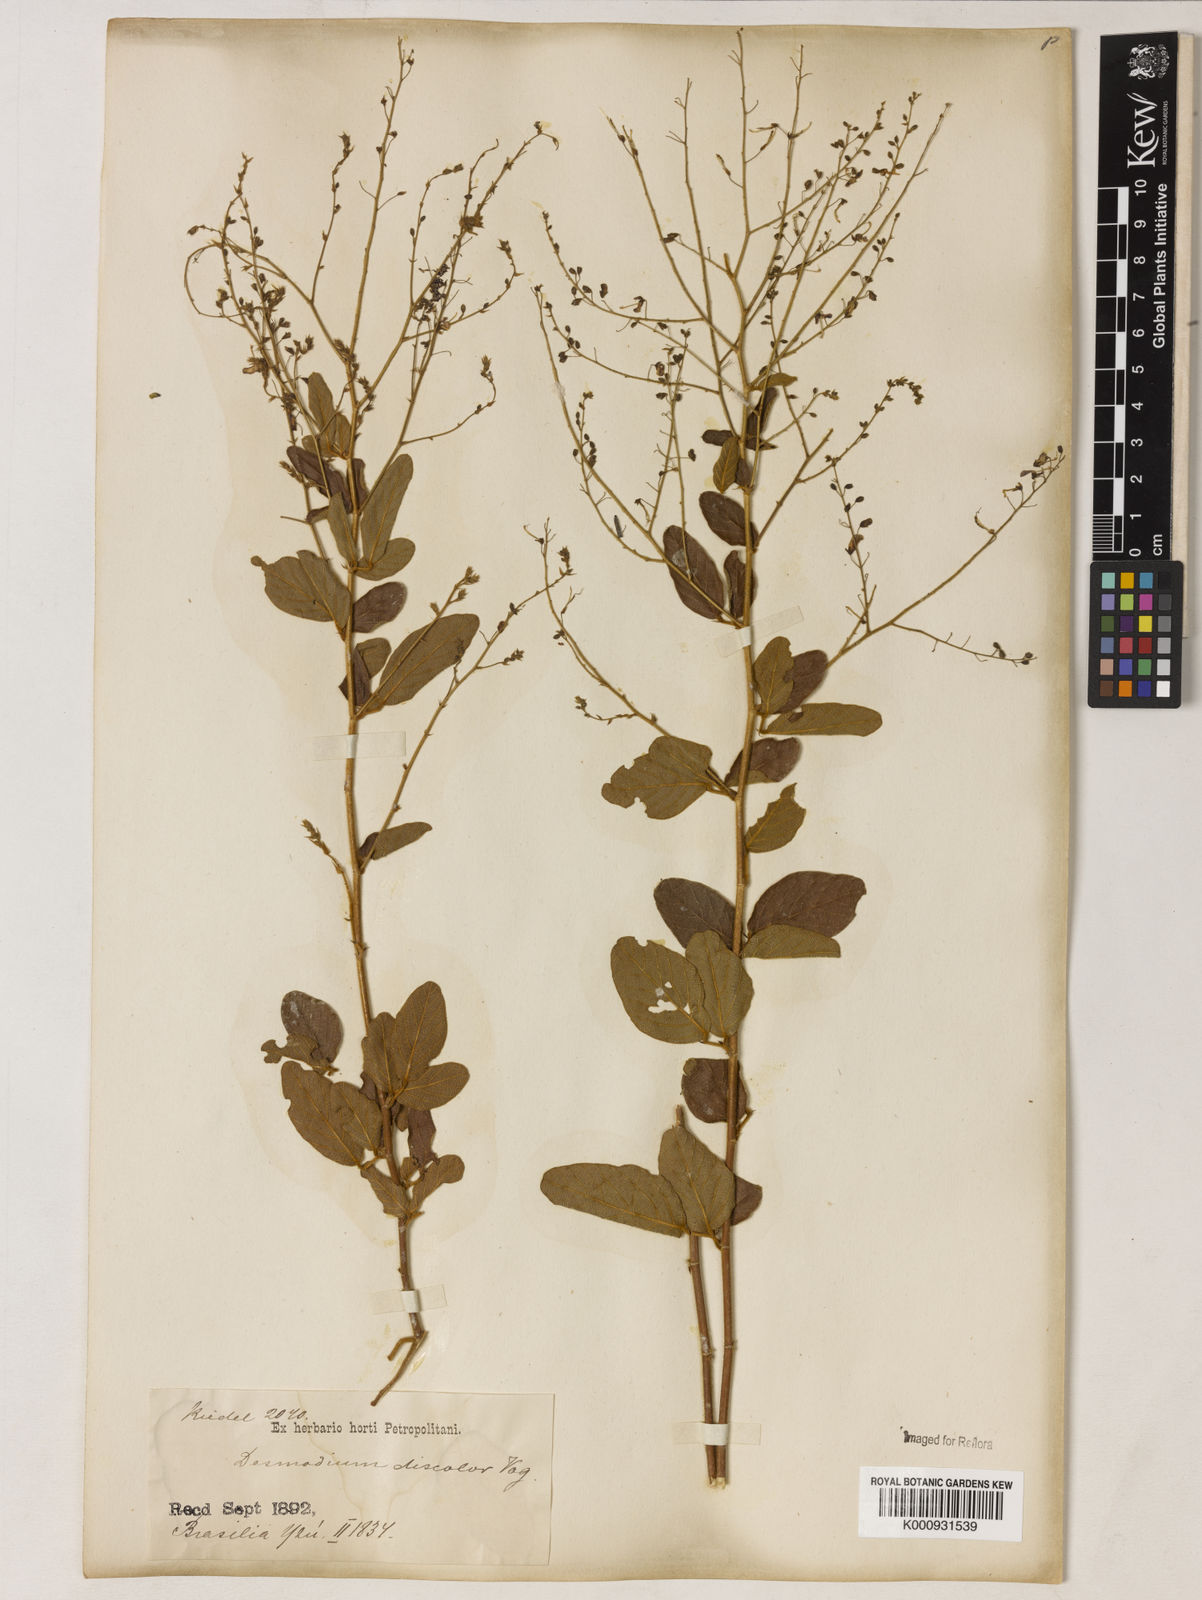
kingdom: Plantae
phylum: Tracheophyta
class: Magnoliopsida
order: Fabales
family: Fabaceae
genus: Desmodium
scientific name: Desmodium subsecundum
